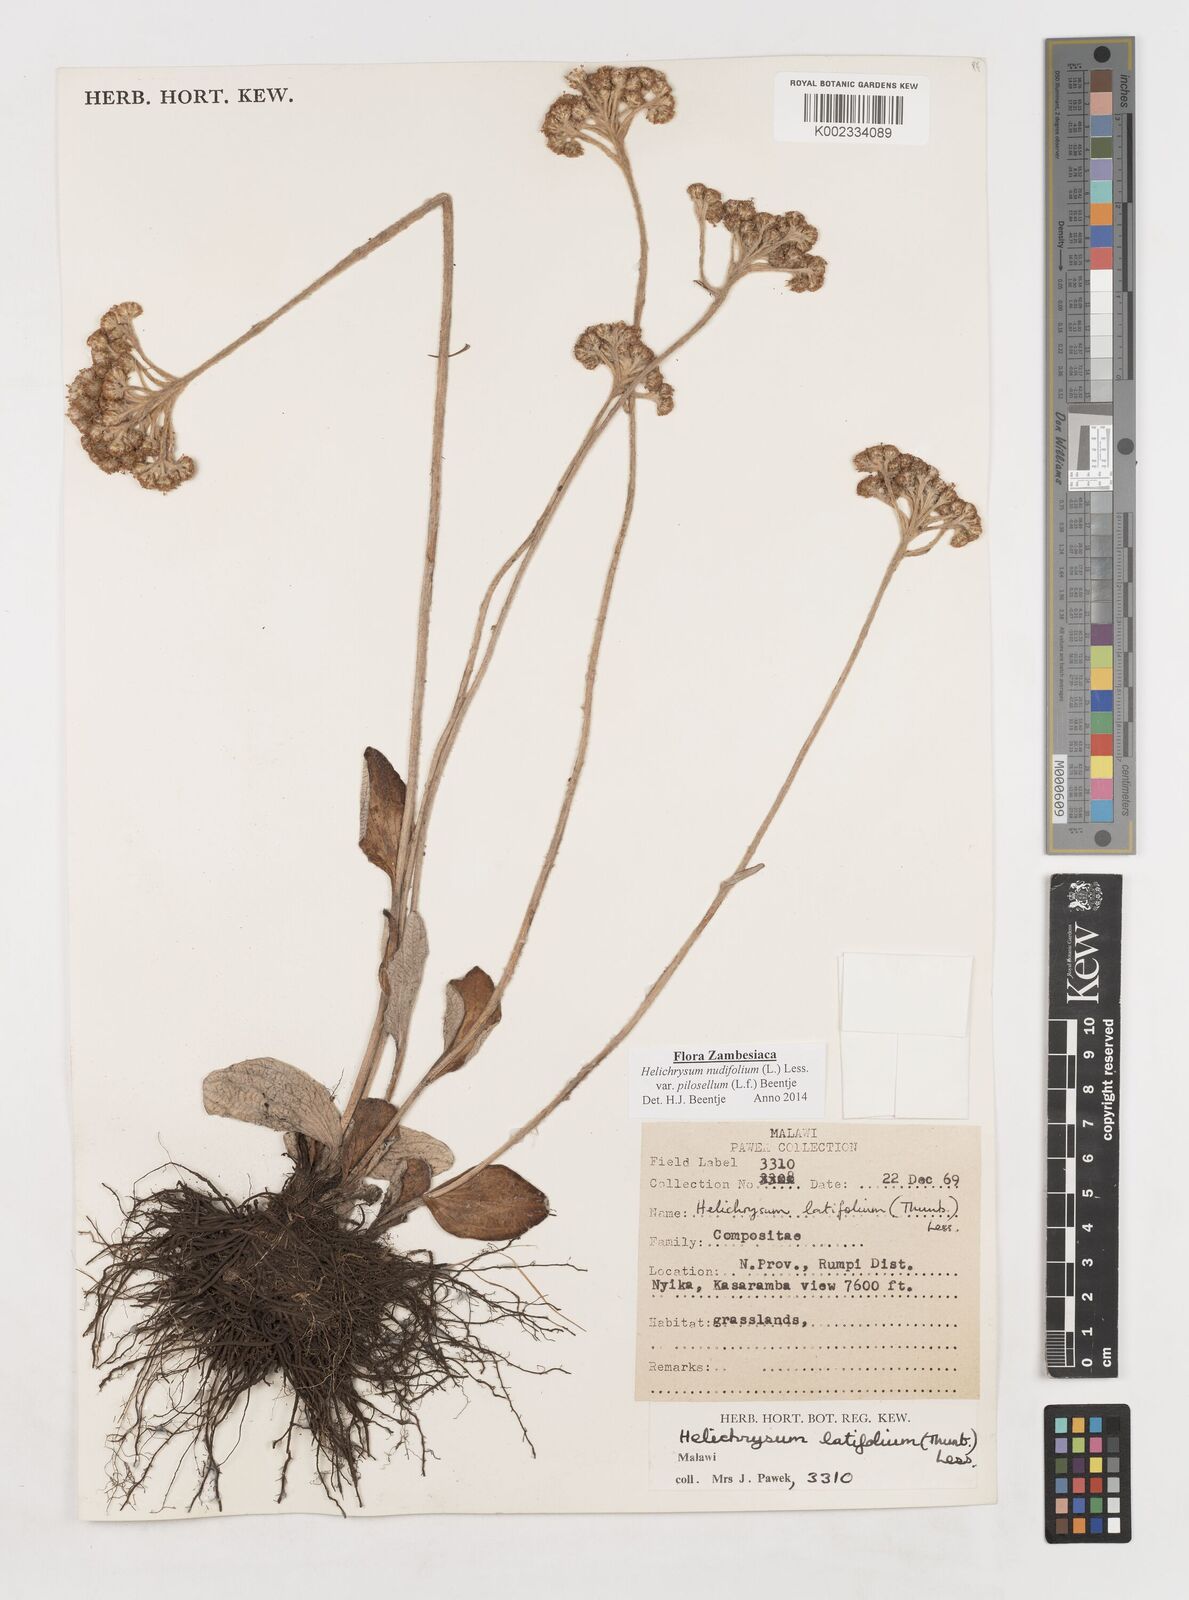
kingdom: Plantae
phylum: Tracheophyta
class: Magnoliopsida
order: Asterales
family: Asteraceae
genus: Helichrysum
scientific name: Helichrysum nudifolium
